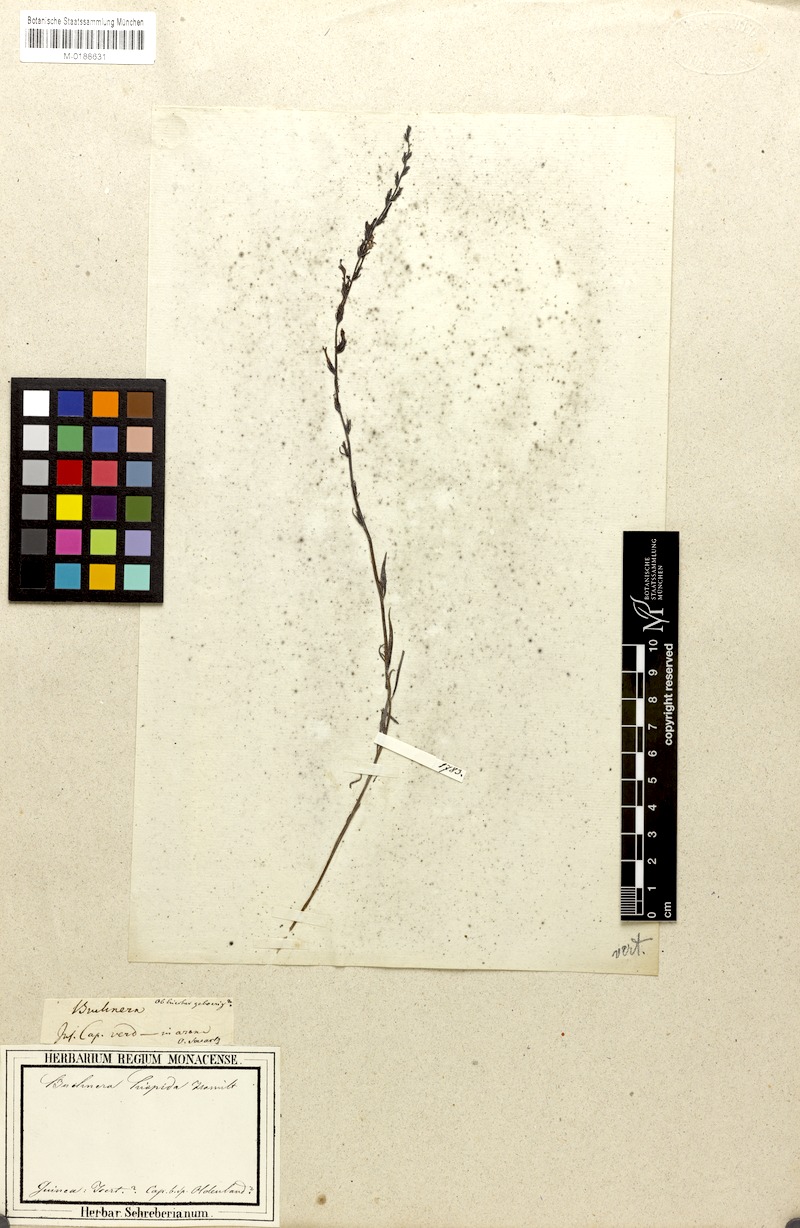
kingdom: Plantae
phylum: Tracheophyta
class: Magnoliopsida
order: Lamiales
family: Orobanchaceae
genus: Buchnera
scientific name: Buchnera hispida
